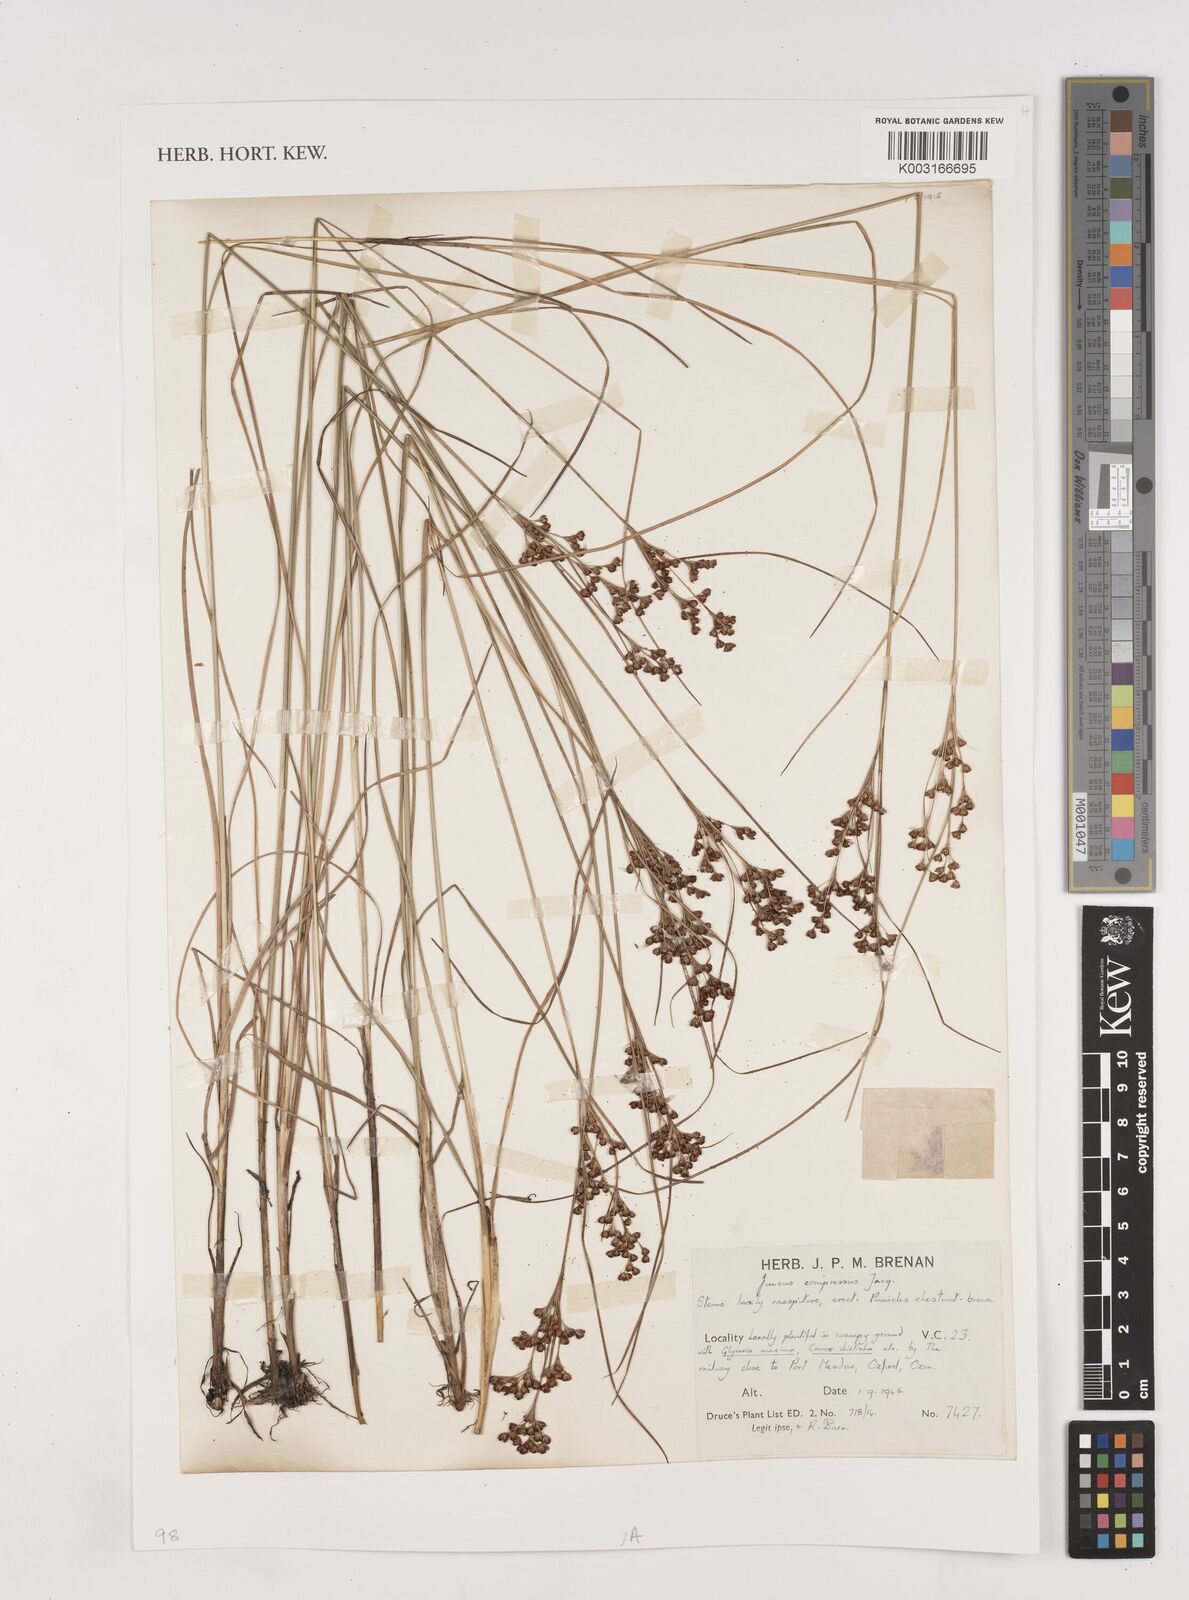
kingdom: Plantae
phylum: Tracheophyta
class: Liliopsida
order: Poales
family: Juncaceae
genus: Juncus
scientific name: Juncus compressus
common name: Round-fruited rush
